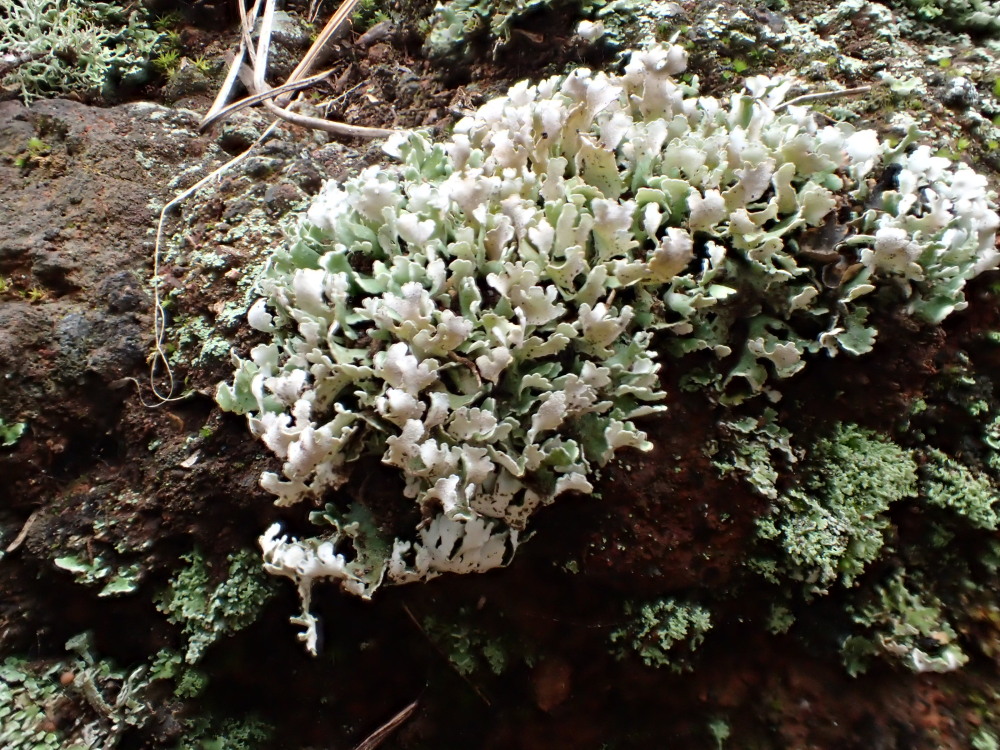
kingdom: Fungi
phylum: Ascomycota
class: Lecanoromycetes
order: Lecanorales
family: Cladoniaceae
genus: Cladonia
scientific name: Cladonia foliacea
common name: fliget bægerlav
